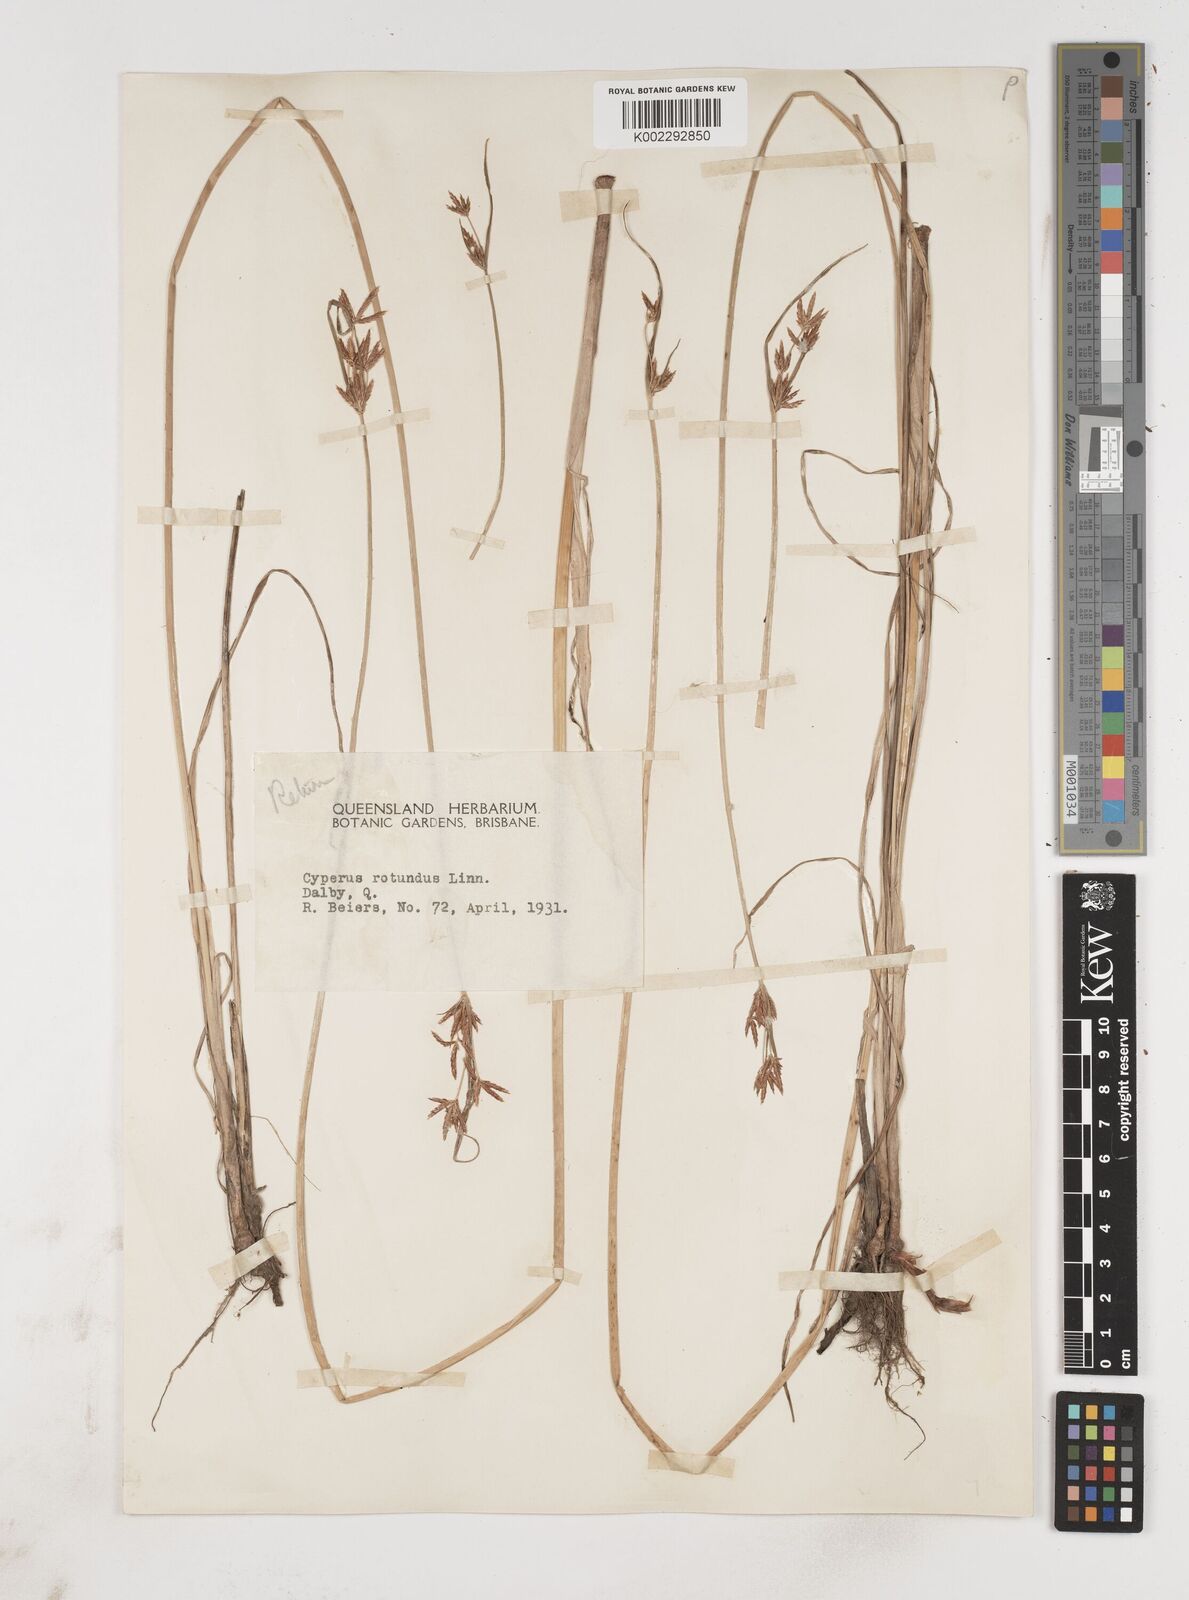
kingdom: Plantae
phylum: Tracheophyta
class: Liliopsida
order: Poales
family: Cyperaceae
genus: Cyperus
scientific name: Cyperus victoriensis
